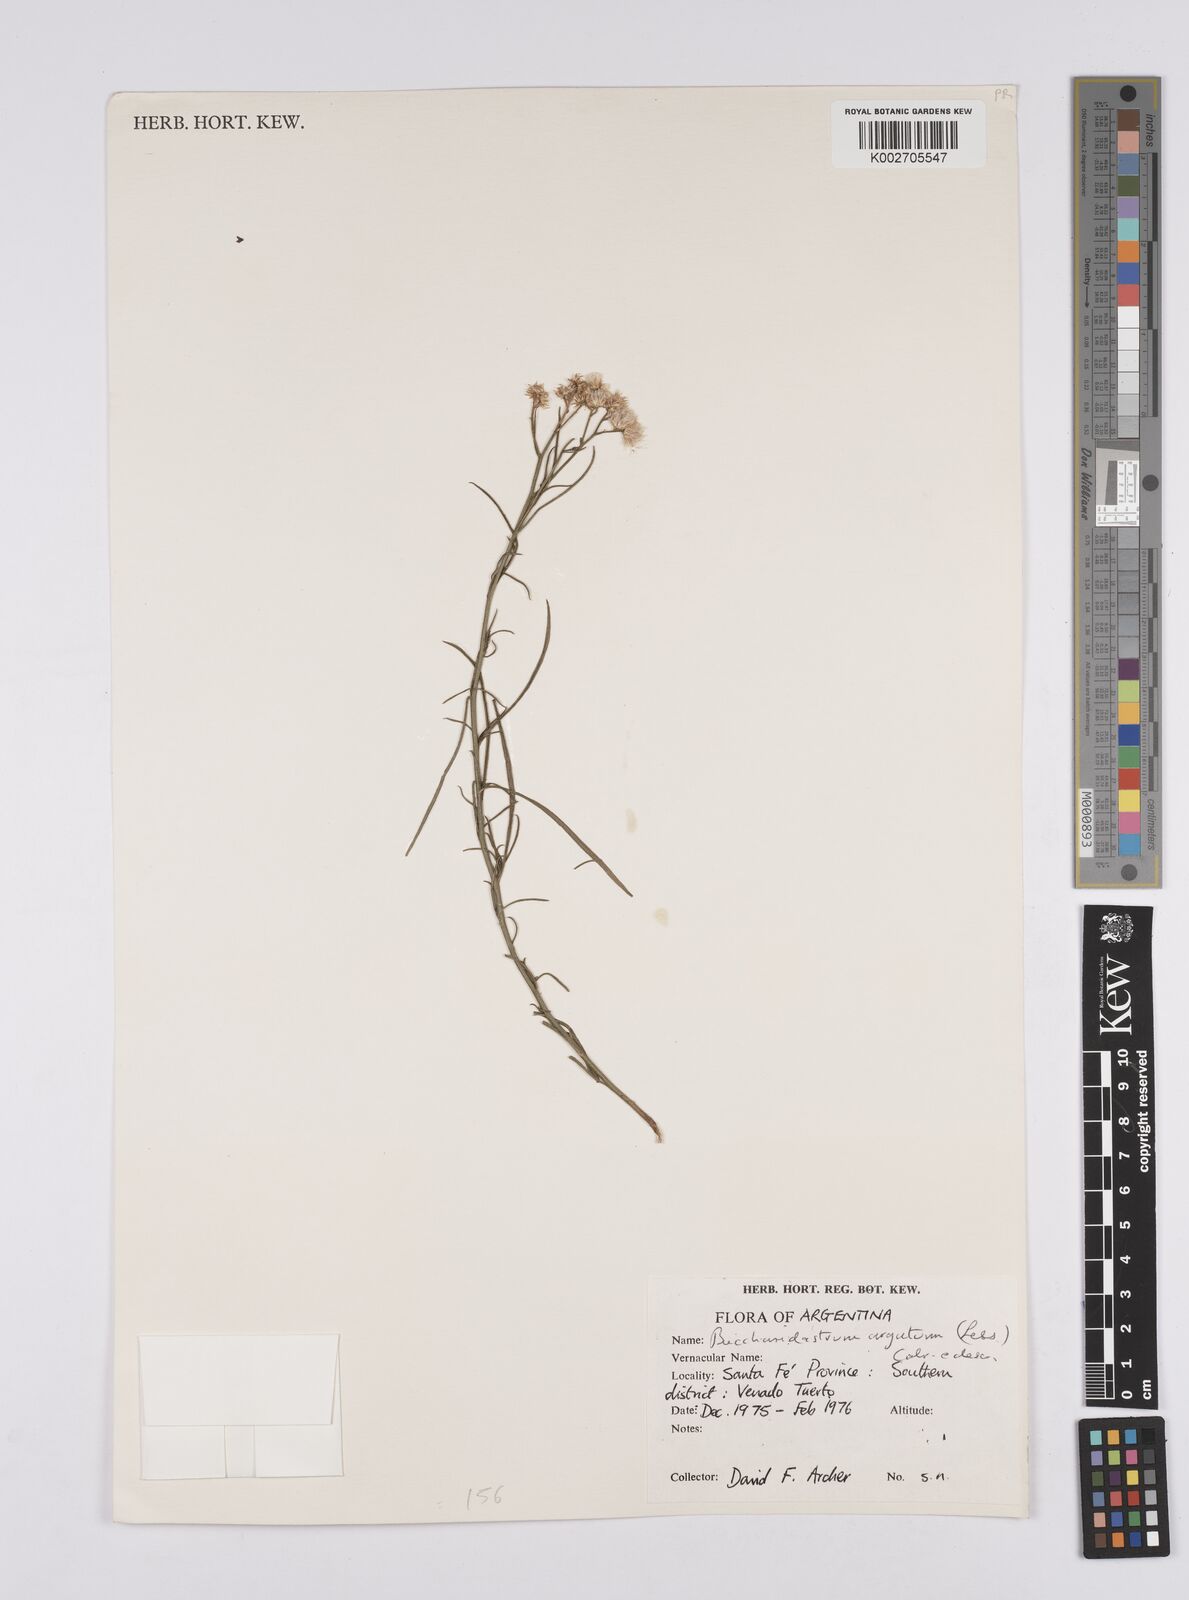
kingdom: Plantae
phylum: Tracheophyta
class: Magnoliopsida
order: Asterales
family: Asteraceae
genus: Baccharis
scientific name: Baccharis breviseta
